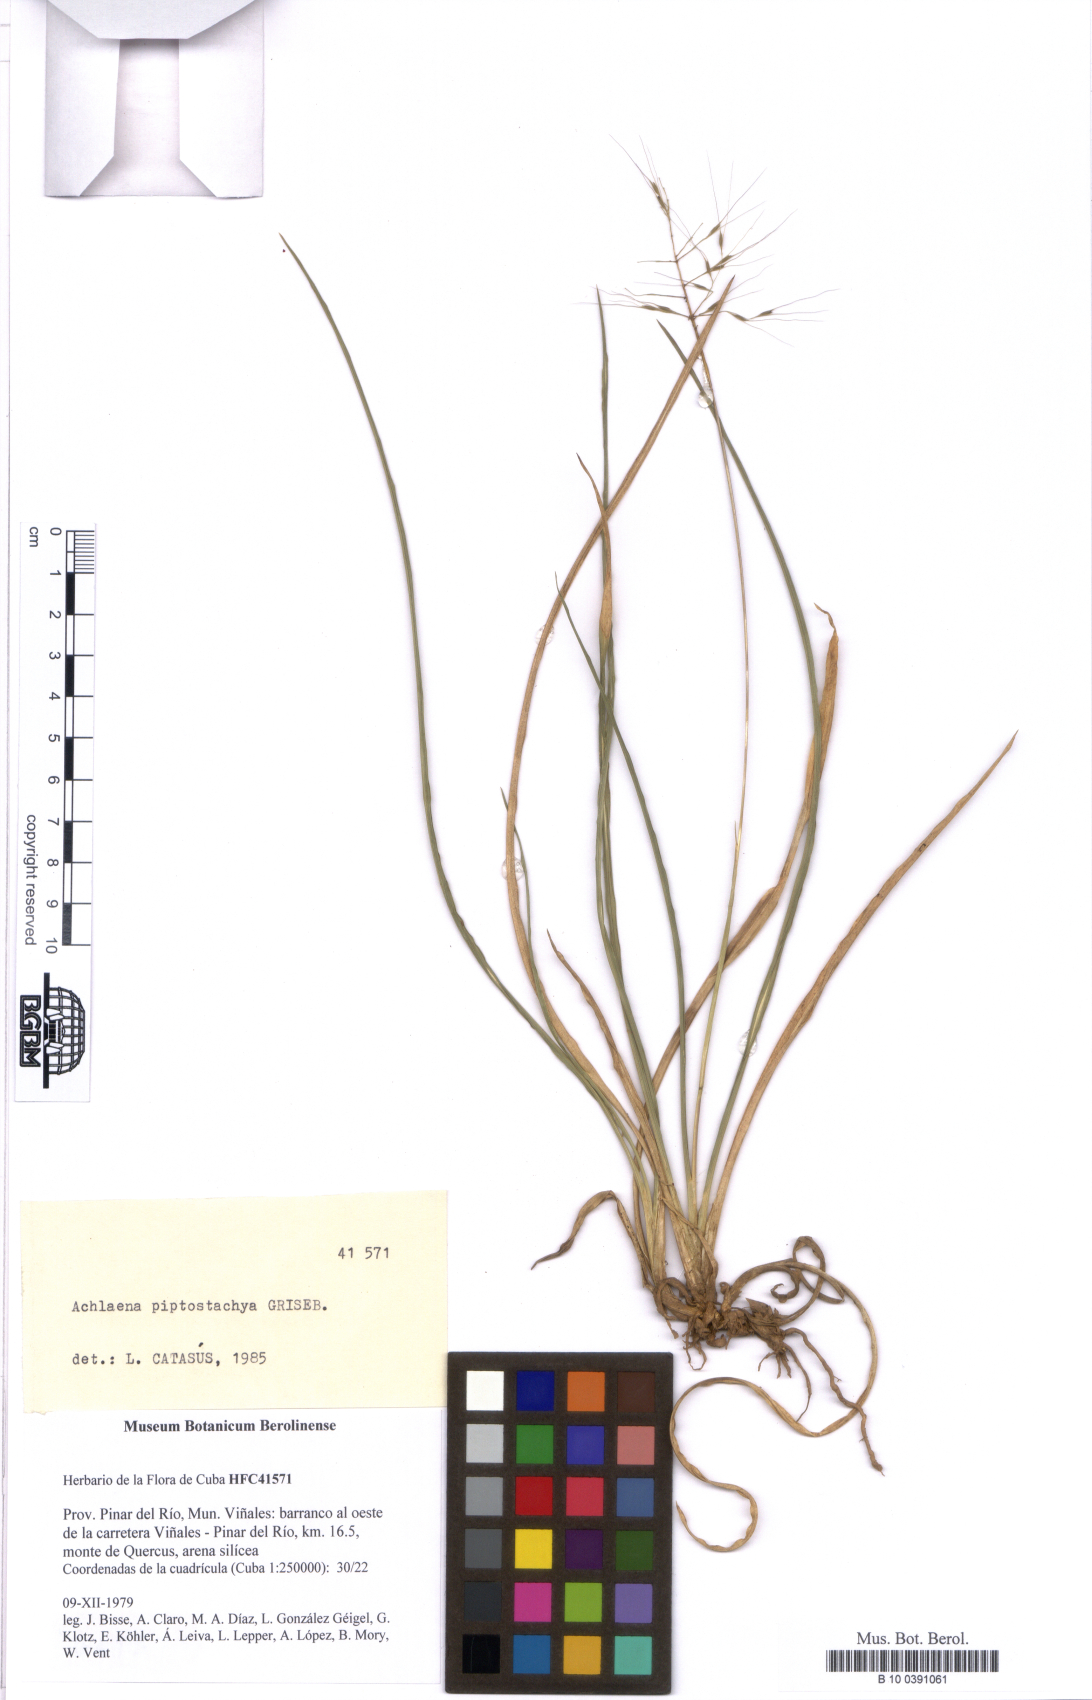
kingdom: Plantae
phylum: Tracheophyta
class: Liliopsida
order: Poales
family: Poaceae
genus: Arthropogon
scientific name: Arthropogon piptostachyus
